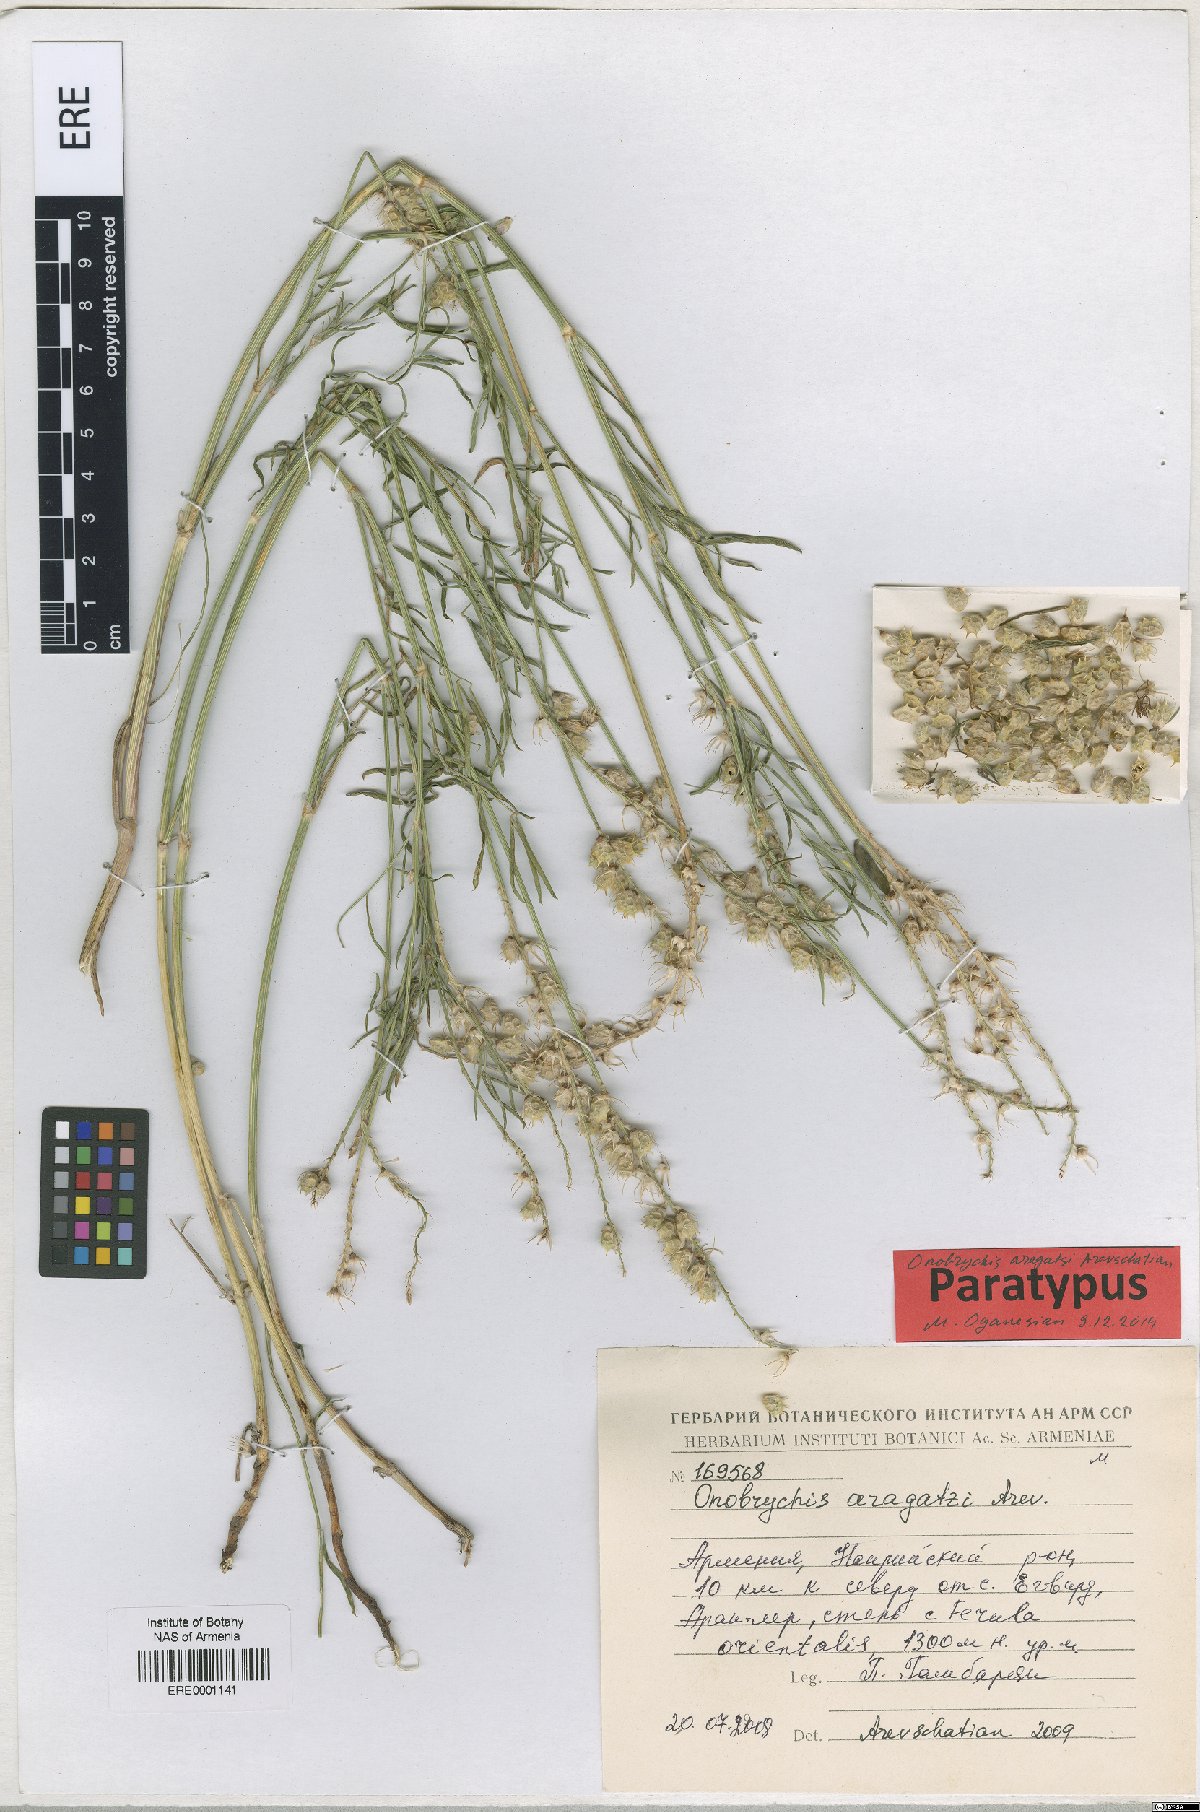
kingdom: Plantae
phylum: Tracheophyta
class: Magnoliopsida
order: Fabales
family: Fabaceae
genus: Onobrychis
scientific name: Onobrychis aragatzi
